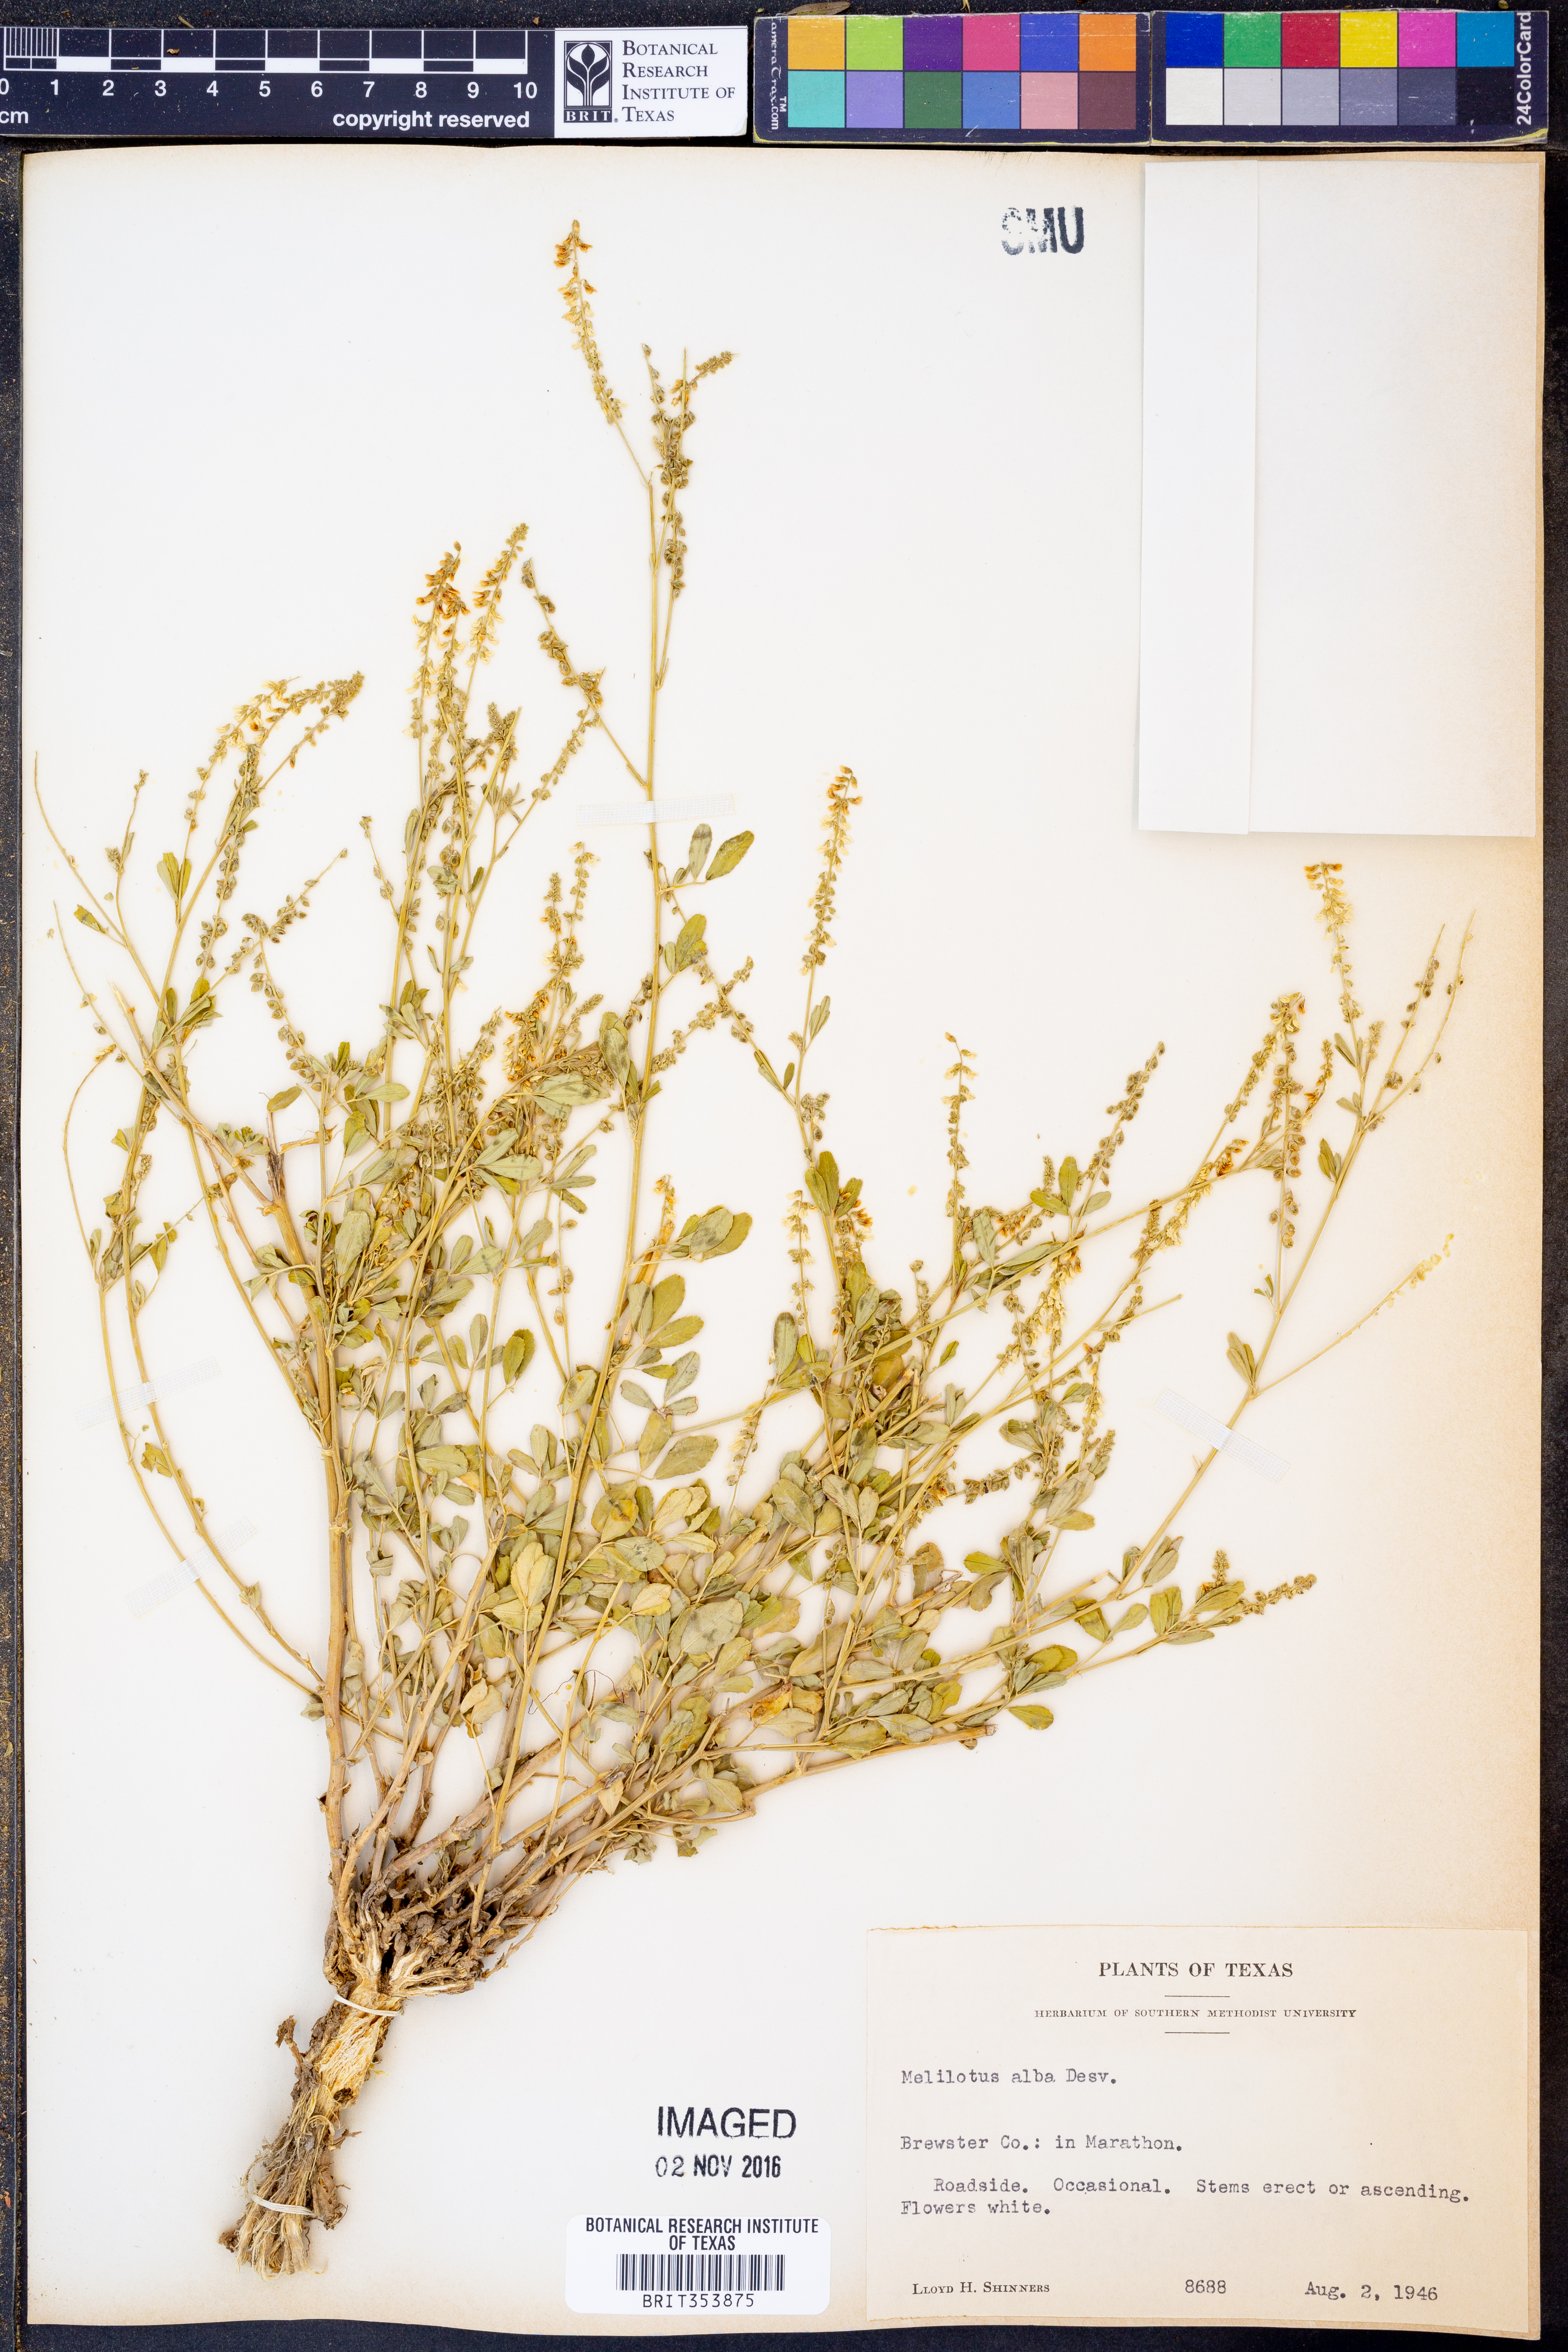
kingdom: Plantae
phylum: Tracheophyta
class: Magnoliopsida
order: Fabales
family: Fabaceae
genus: Melilotus
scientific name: Melilotus albus
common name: White melilot
